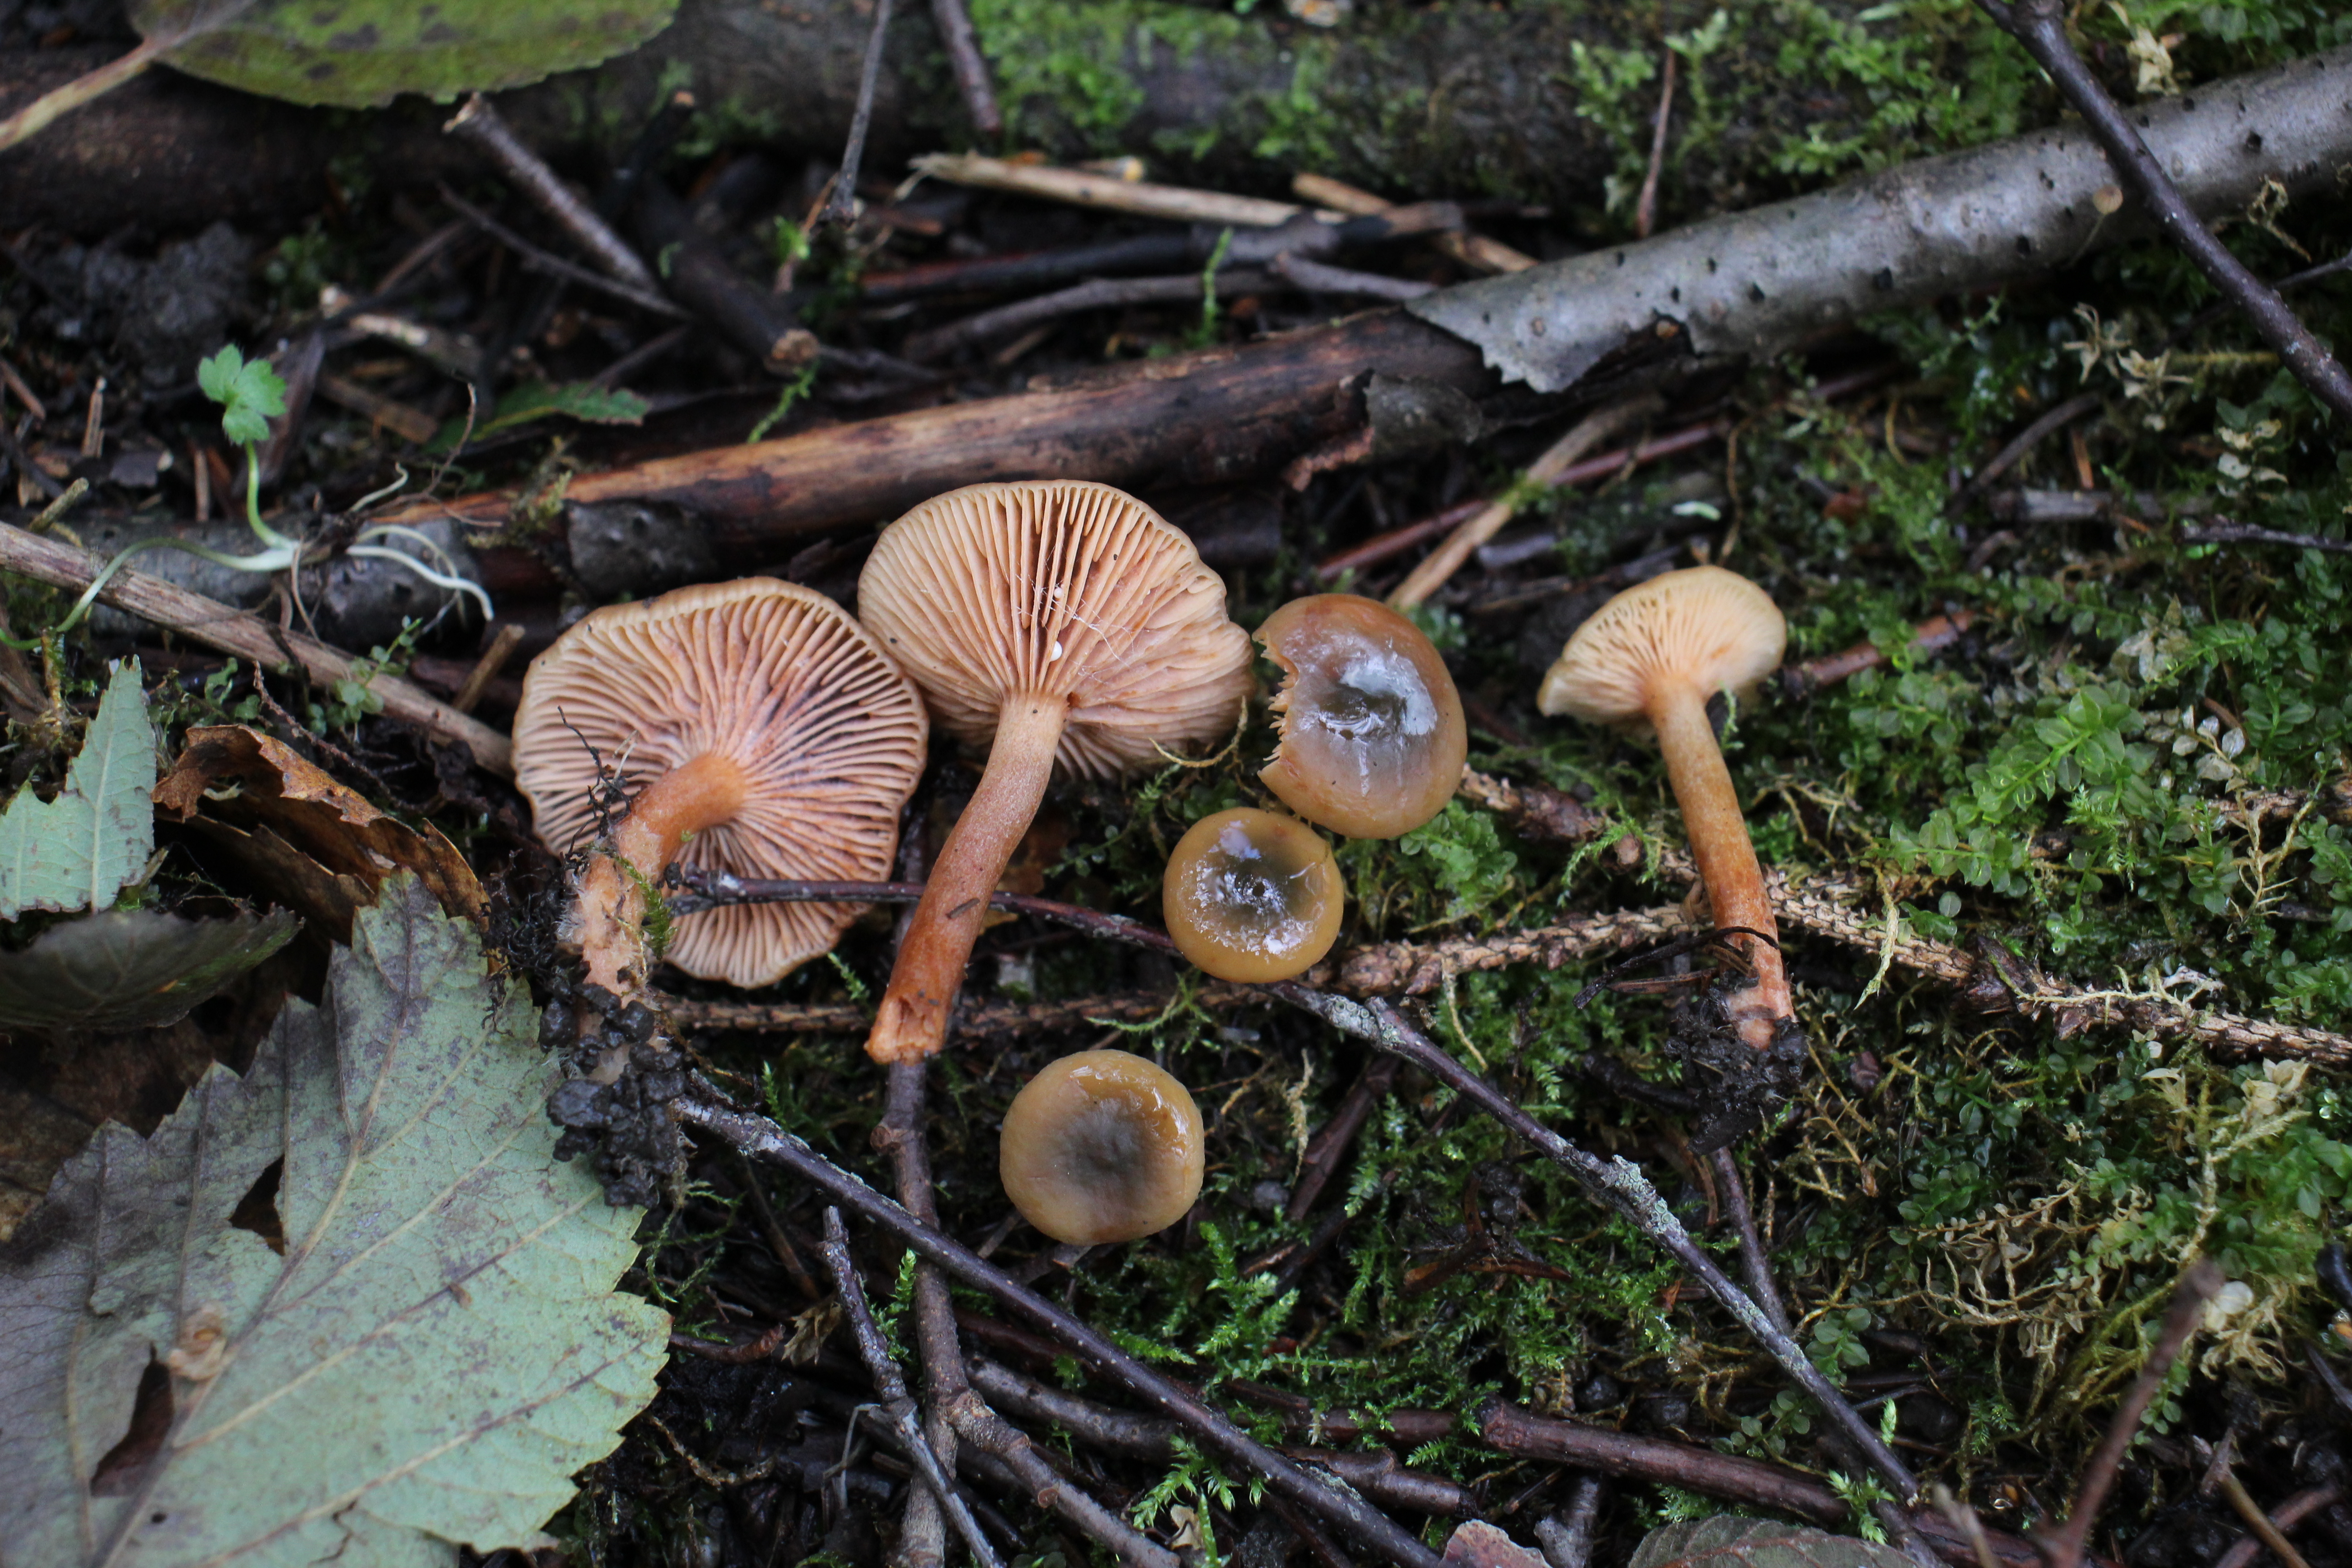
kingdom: Fungi
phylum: Basidiomycota
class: Agaricomycetes
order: Russulales
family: Russulaceae
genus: Lactarius
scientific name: Lactarius obscuratus
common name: Alder milkcap
